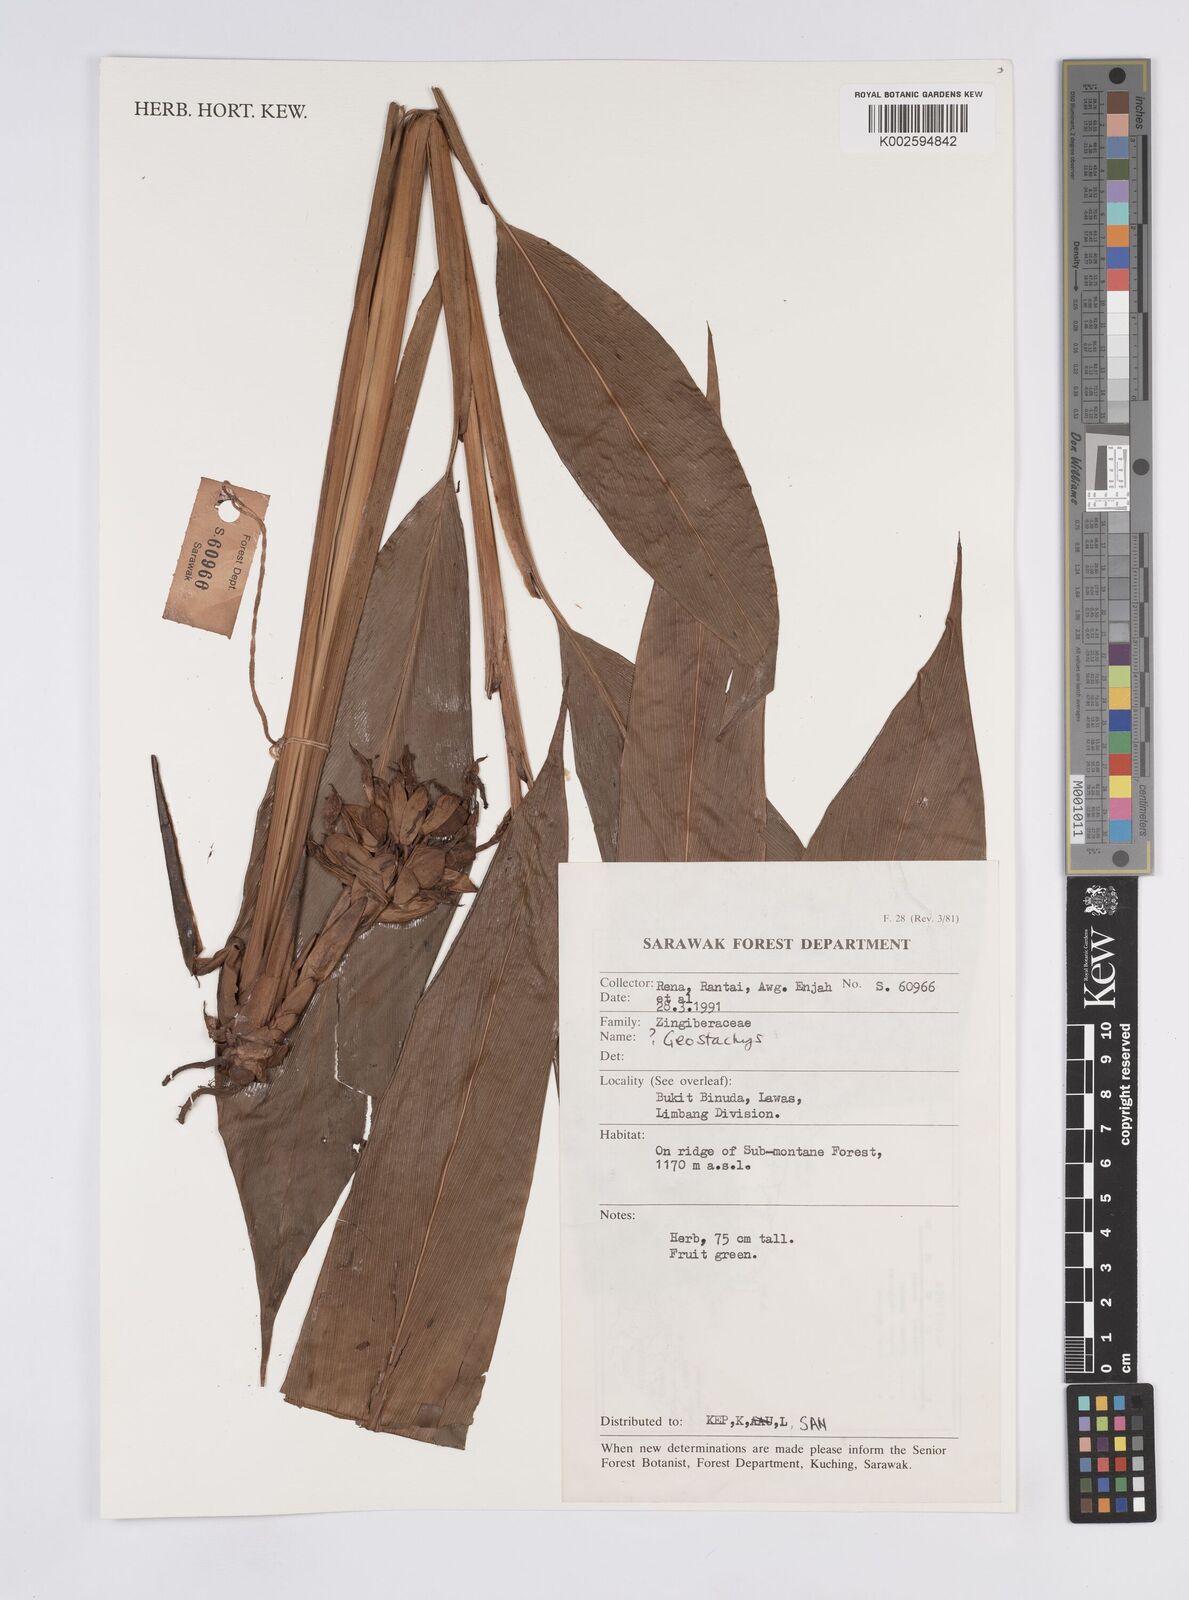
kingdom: Plantae
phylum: Tracheophyta
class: Liliopsida
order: Zingiberales
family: Zingiberaceae
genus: Geostachys
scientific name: Geostachys
